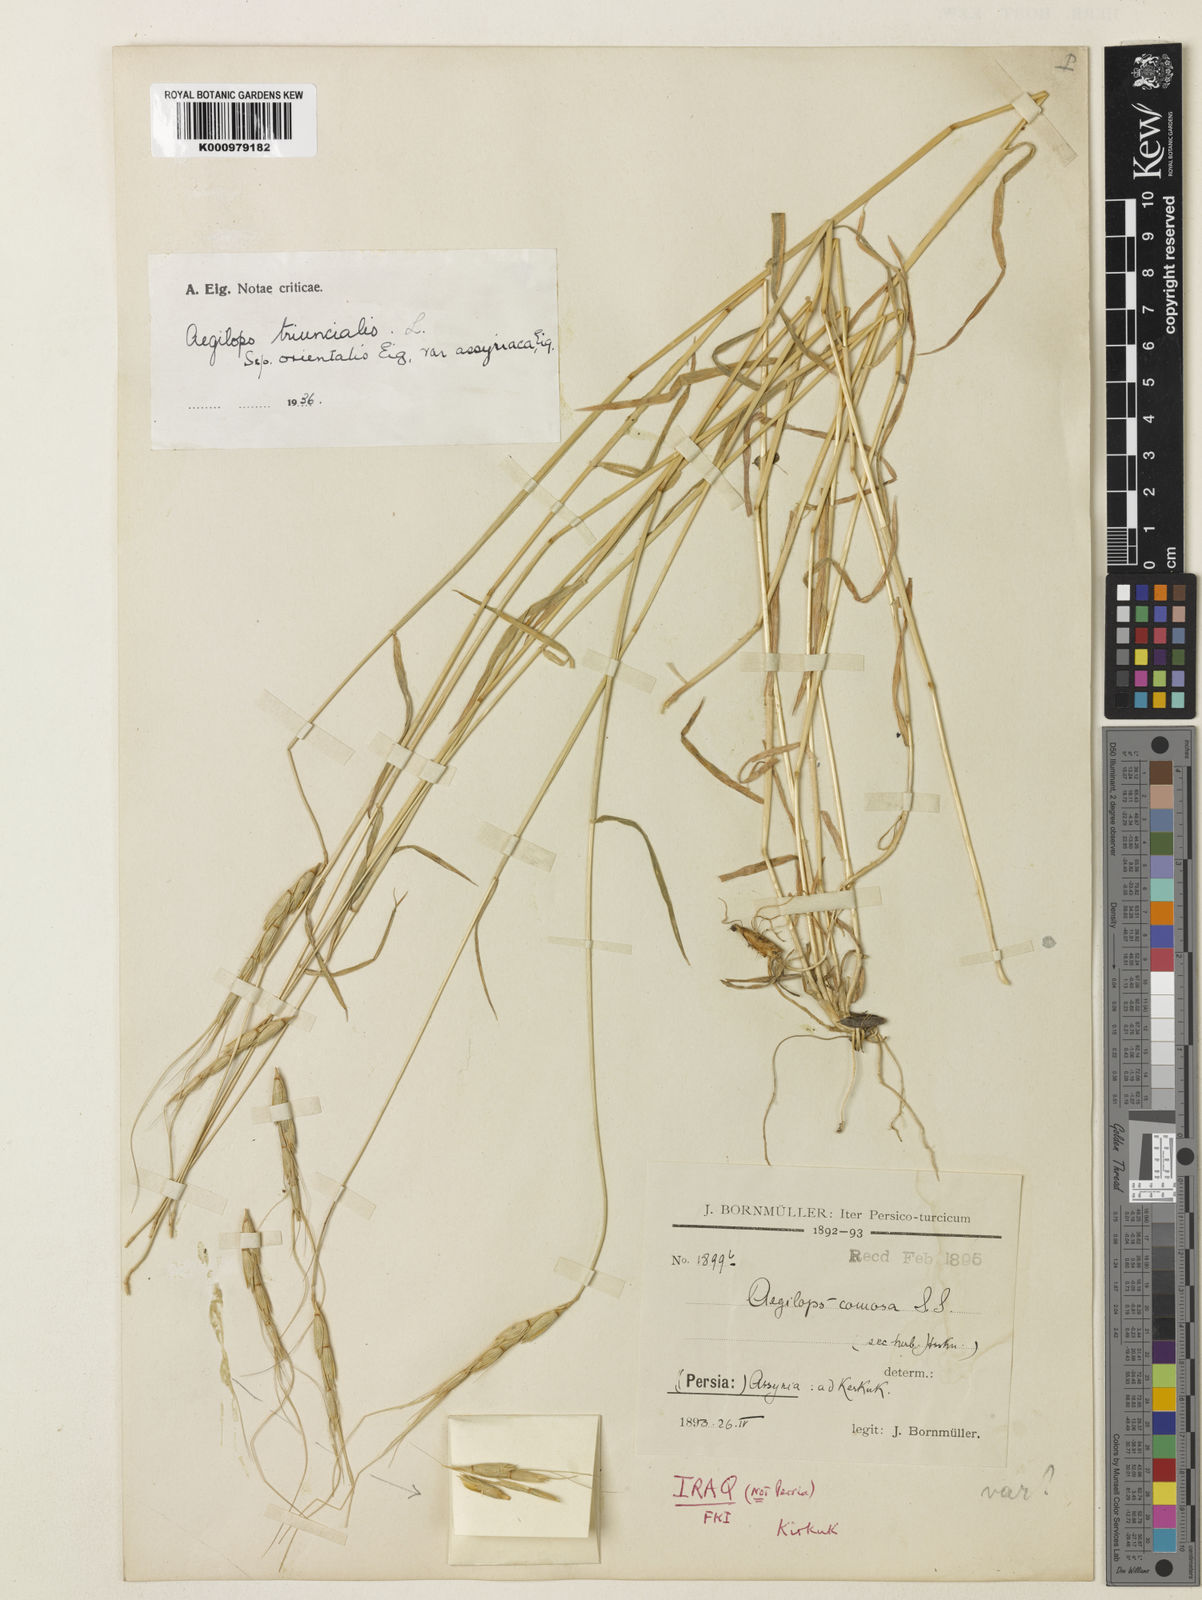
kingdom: Plantae
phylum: Tracheophyta
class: Liliopsida
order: Poales
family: Poaceae
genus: Aegilops
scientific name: Aegilops triuncialis
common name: Barb goat grass
